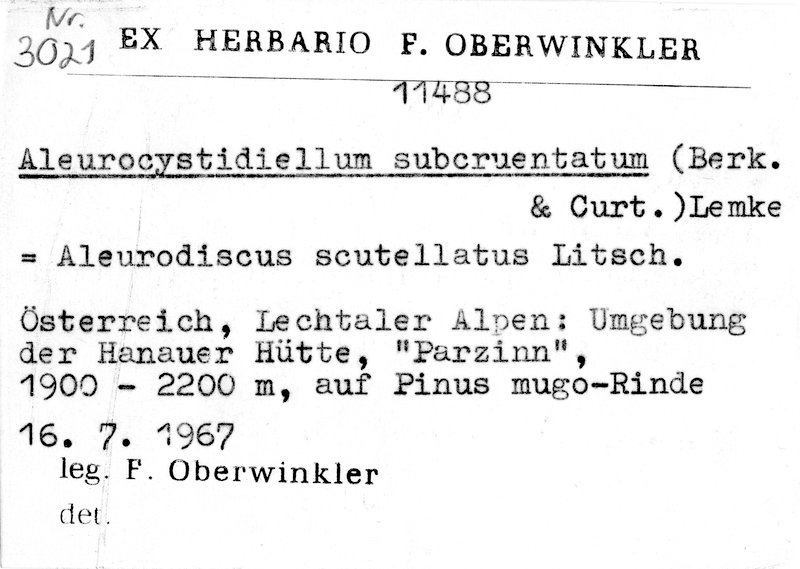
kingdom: Plantae
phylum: Tracheophyta
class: Pinopsida
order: Pinales
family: Pinaceae
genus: Pinus
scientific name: Pinus mugo
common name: Mugo pine
